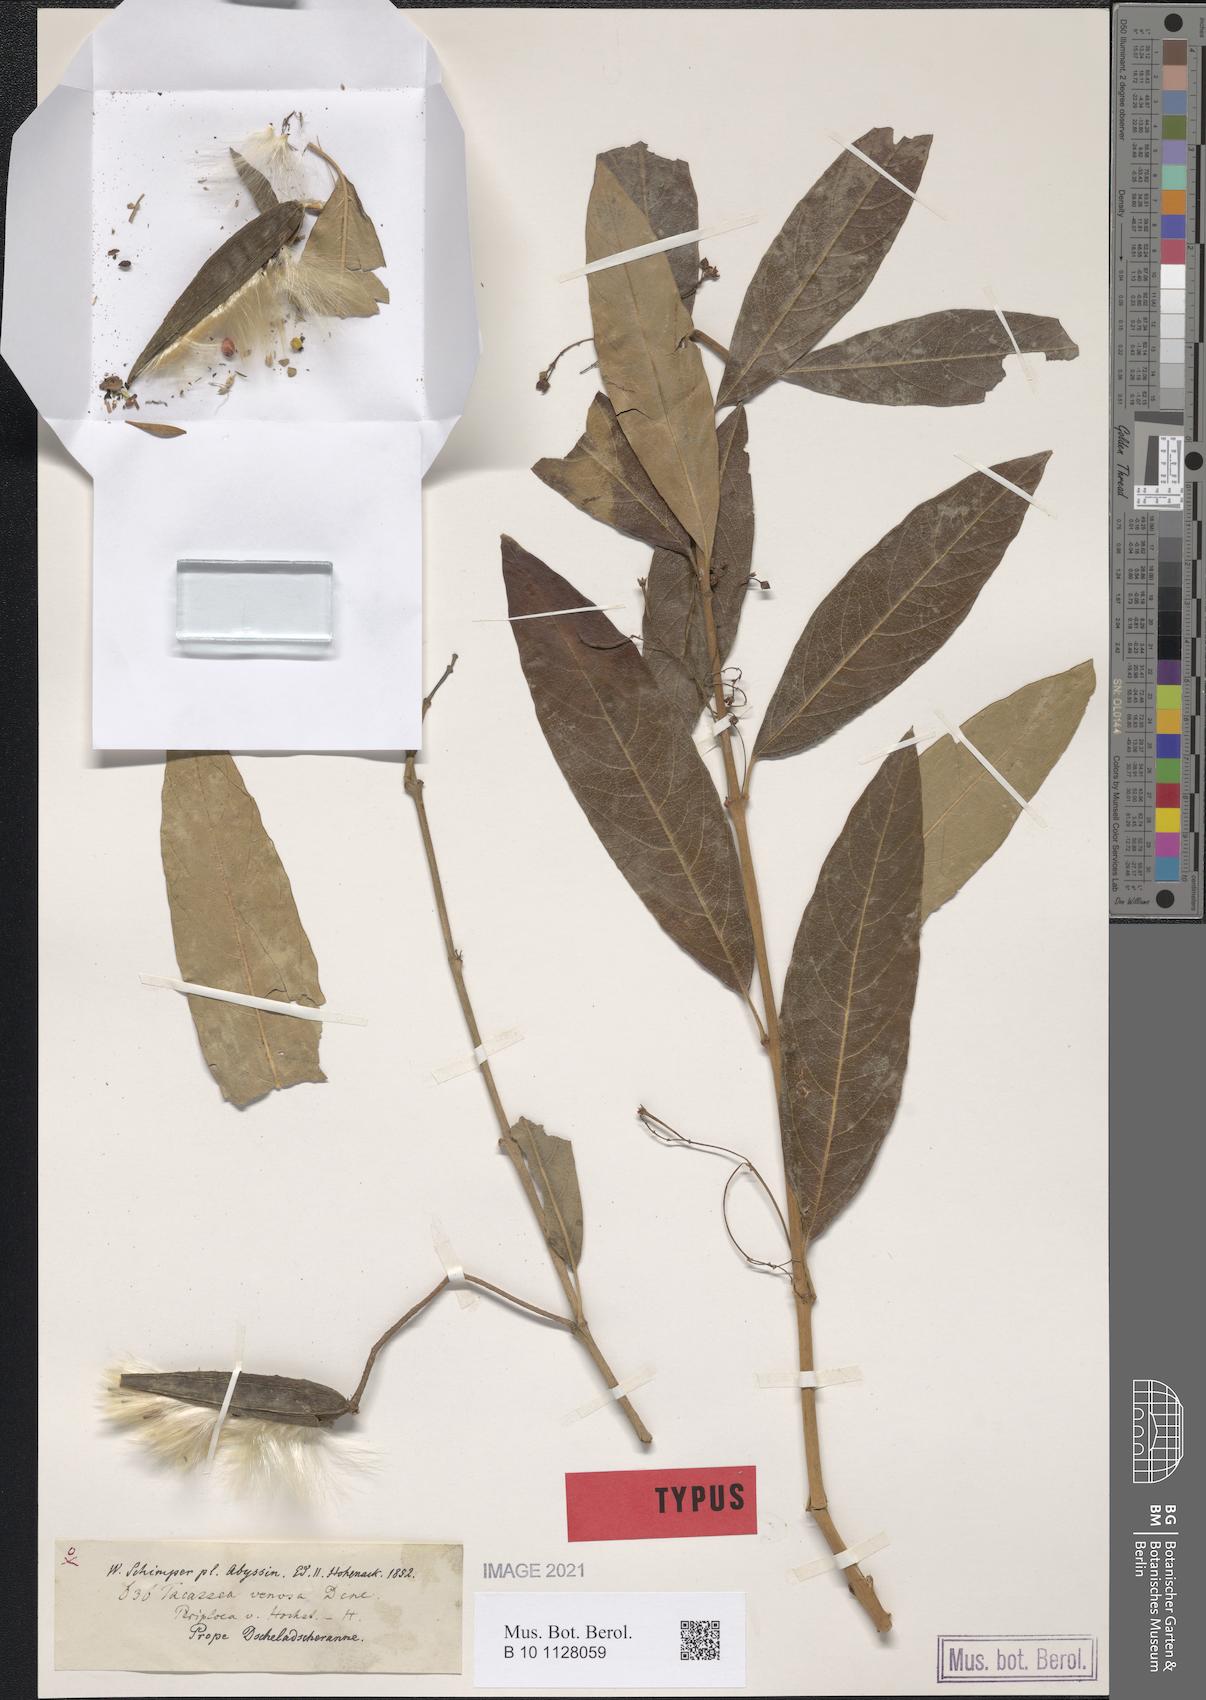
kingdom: Plantae
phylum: Tracheophyta
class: Magnoliopsida
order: Gentianales
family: Apocynaceae
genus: Tacazzea
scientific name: Tacazzea venosa
